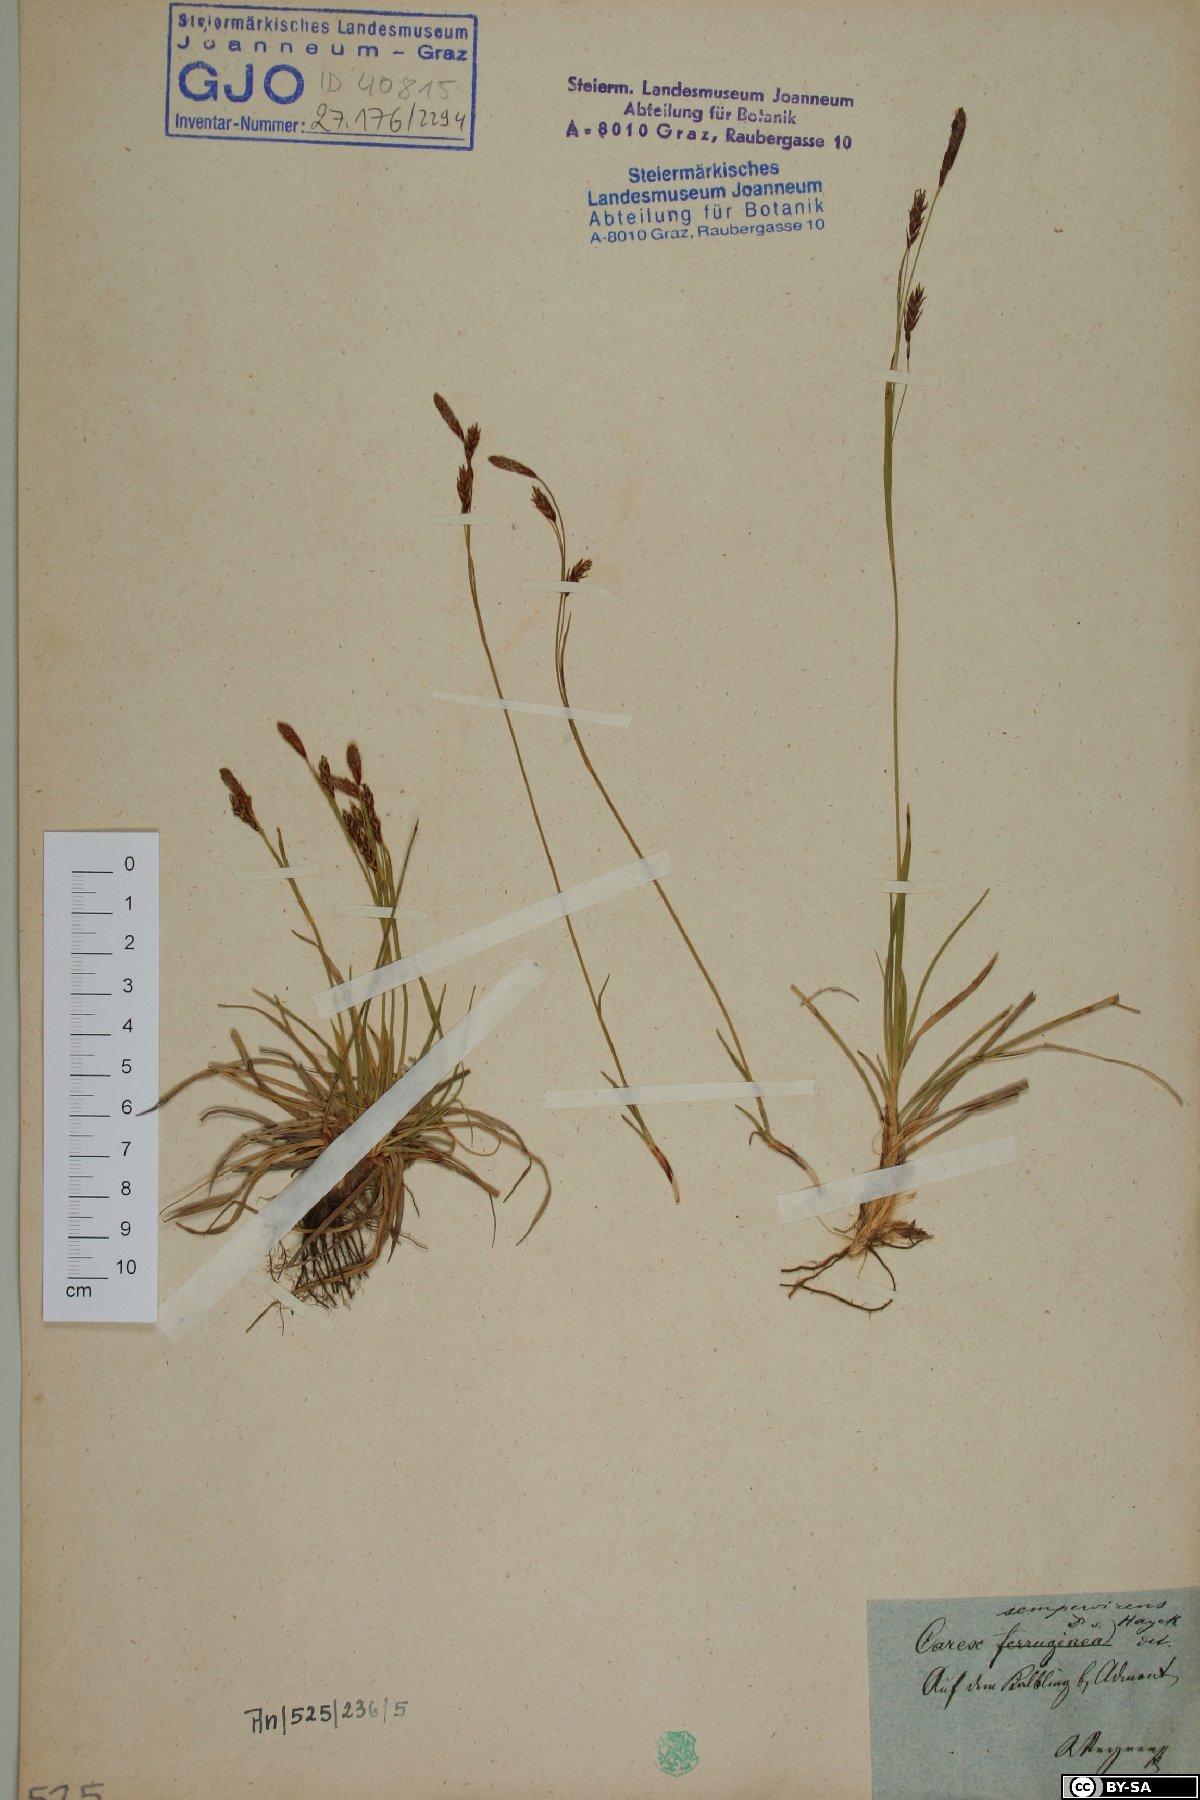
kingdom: Plantae
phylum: Tracheophyta
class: Liliopsida
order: Poales
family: Cyperaceae
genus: Carex
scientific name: Carex sempervirens
